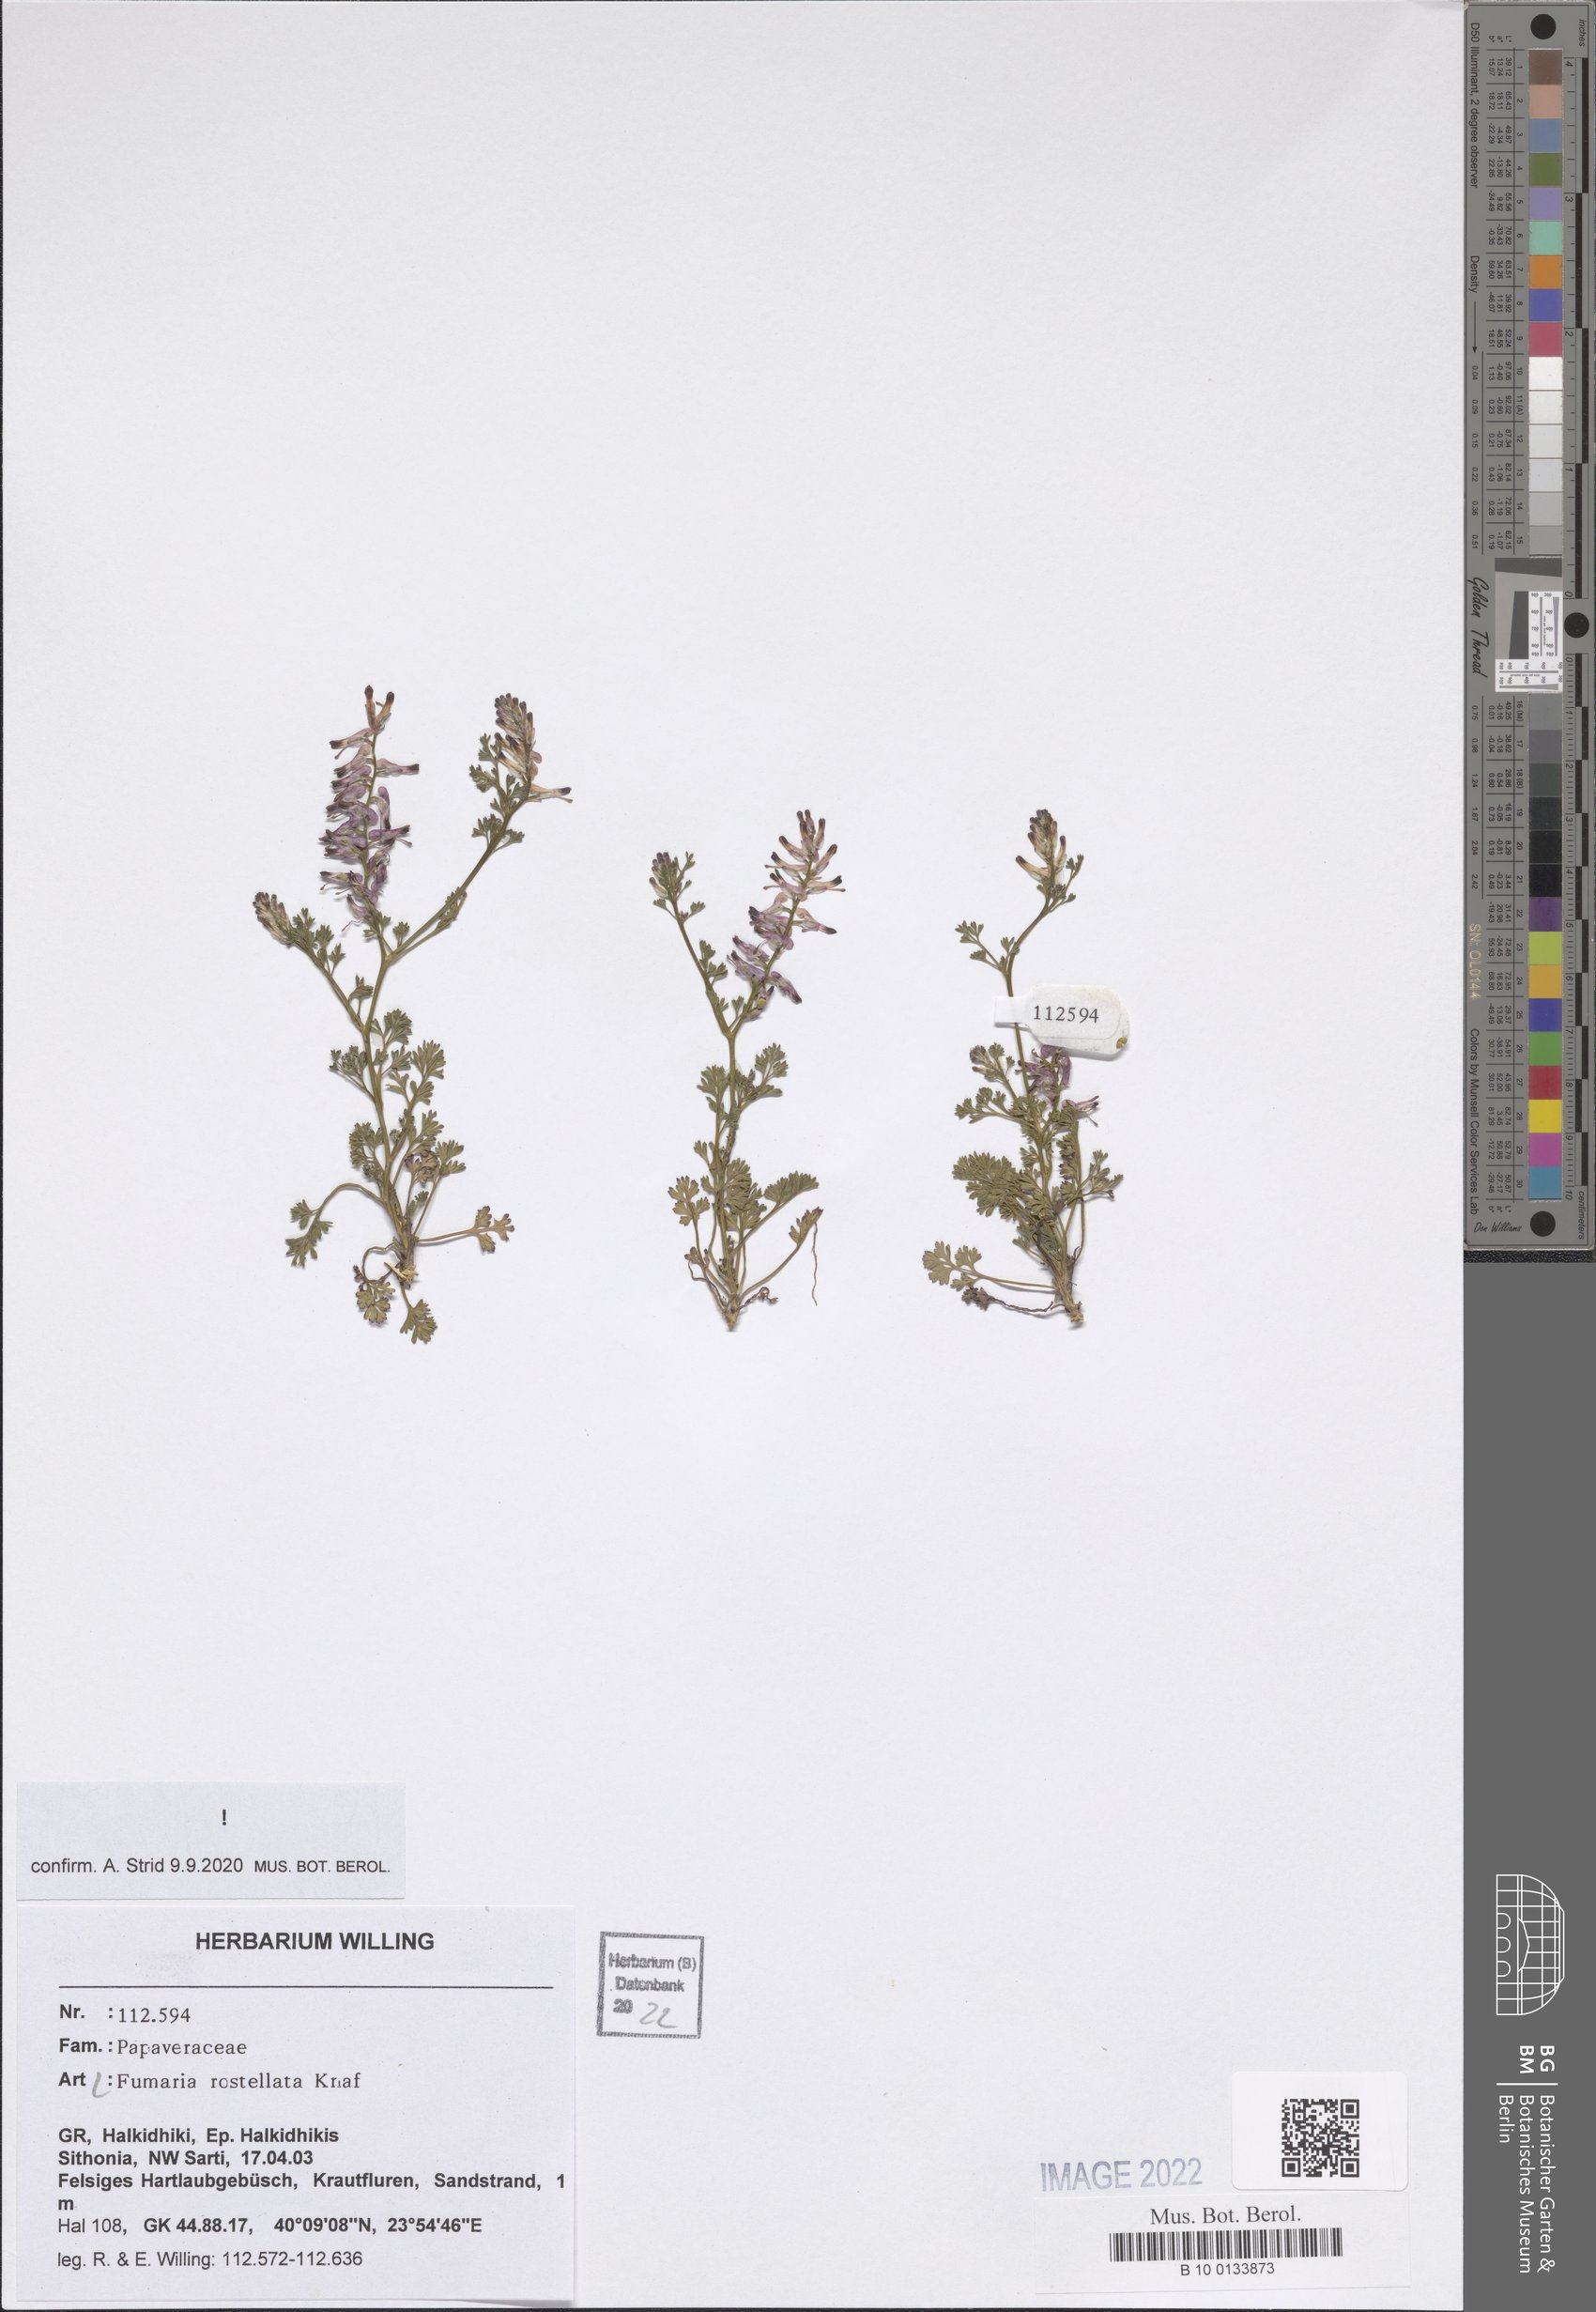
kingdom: Plantae
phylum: Tracheophyta
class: Magnoliopsida
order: Ranunculales
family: Papaveraceae
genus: Fumaria
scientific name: Fumaria rostellata
